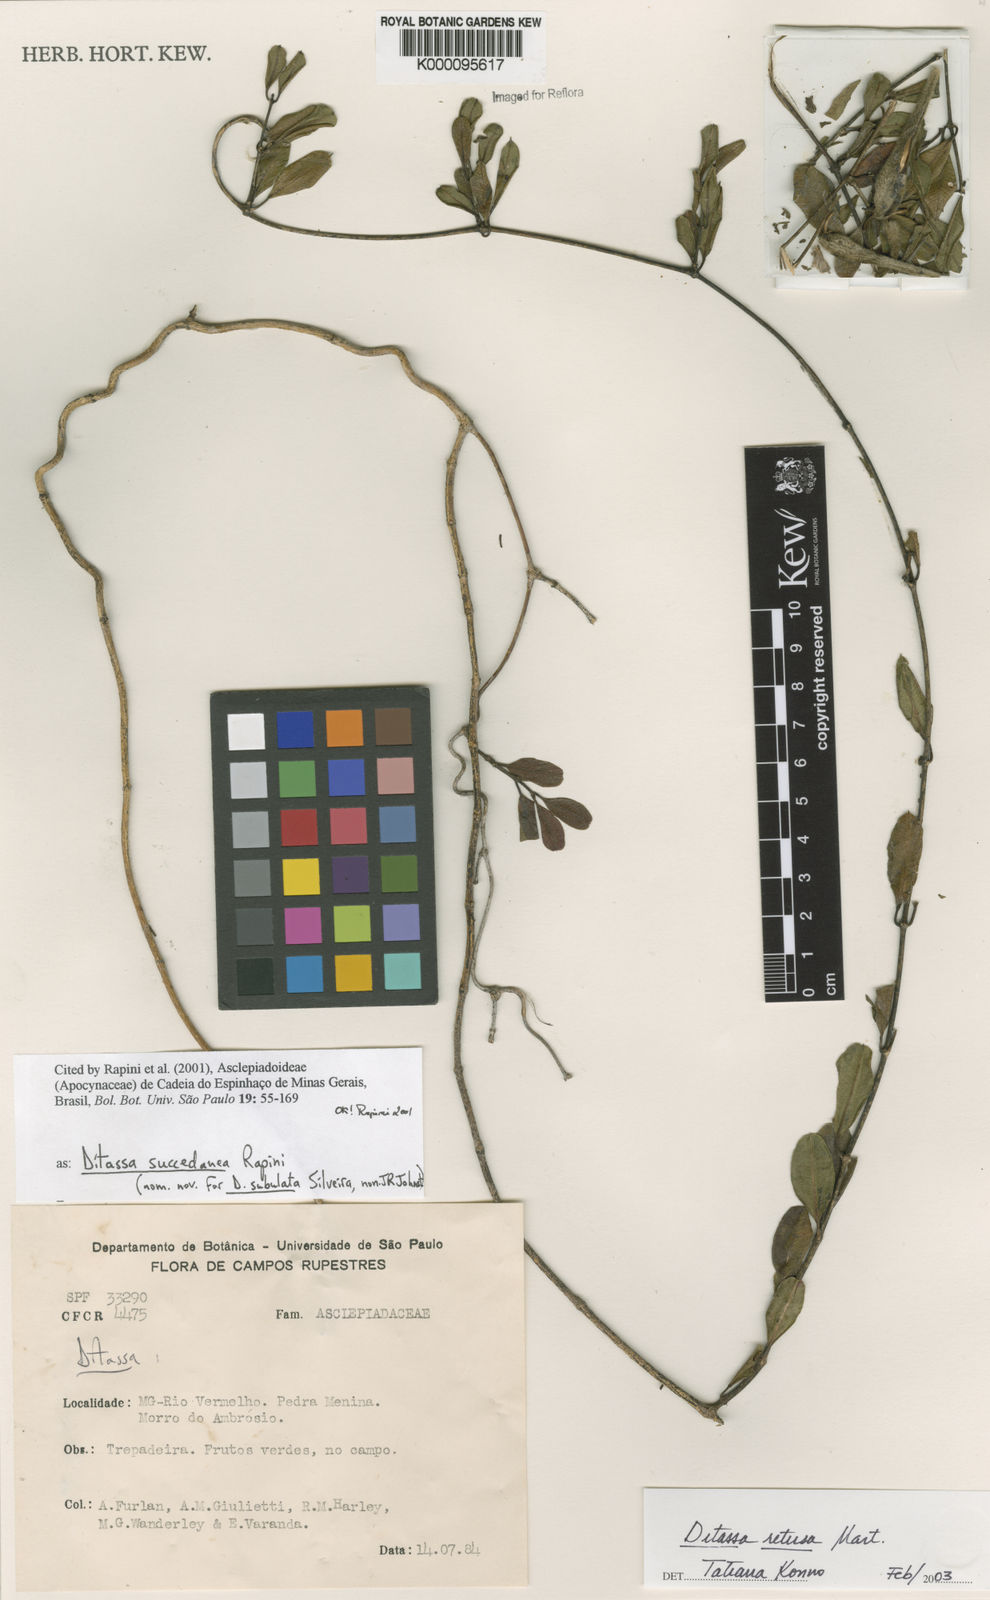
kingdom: Plantae
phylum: Tracheophyta
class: Magnoliopsida
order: Gentianales
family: Apocynaceae
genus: Ditassa
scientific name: Ditassa retusa
